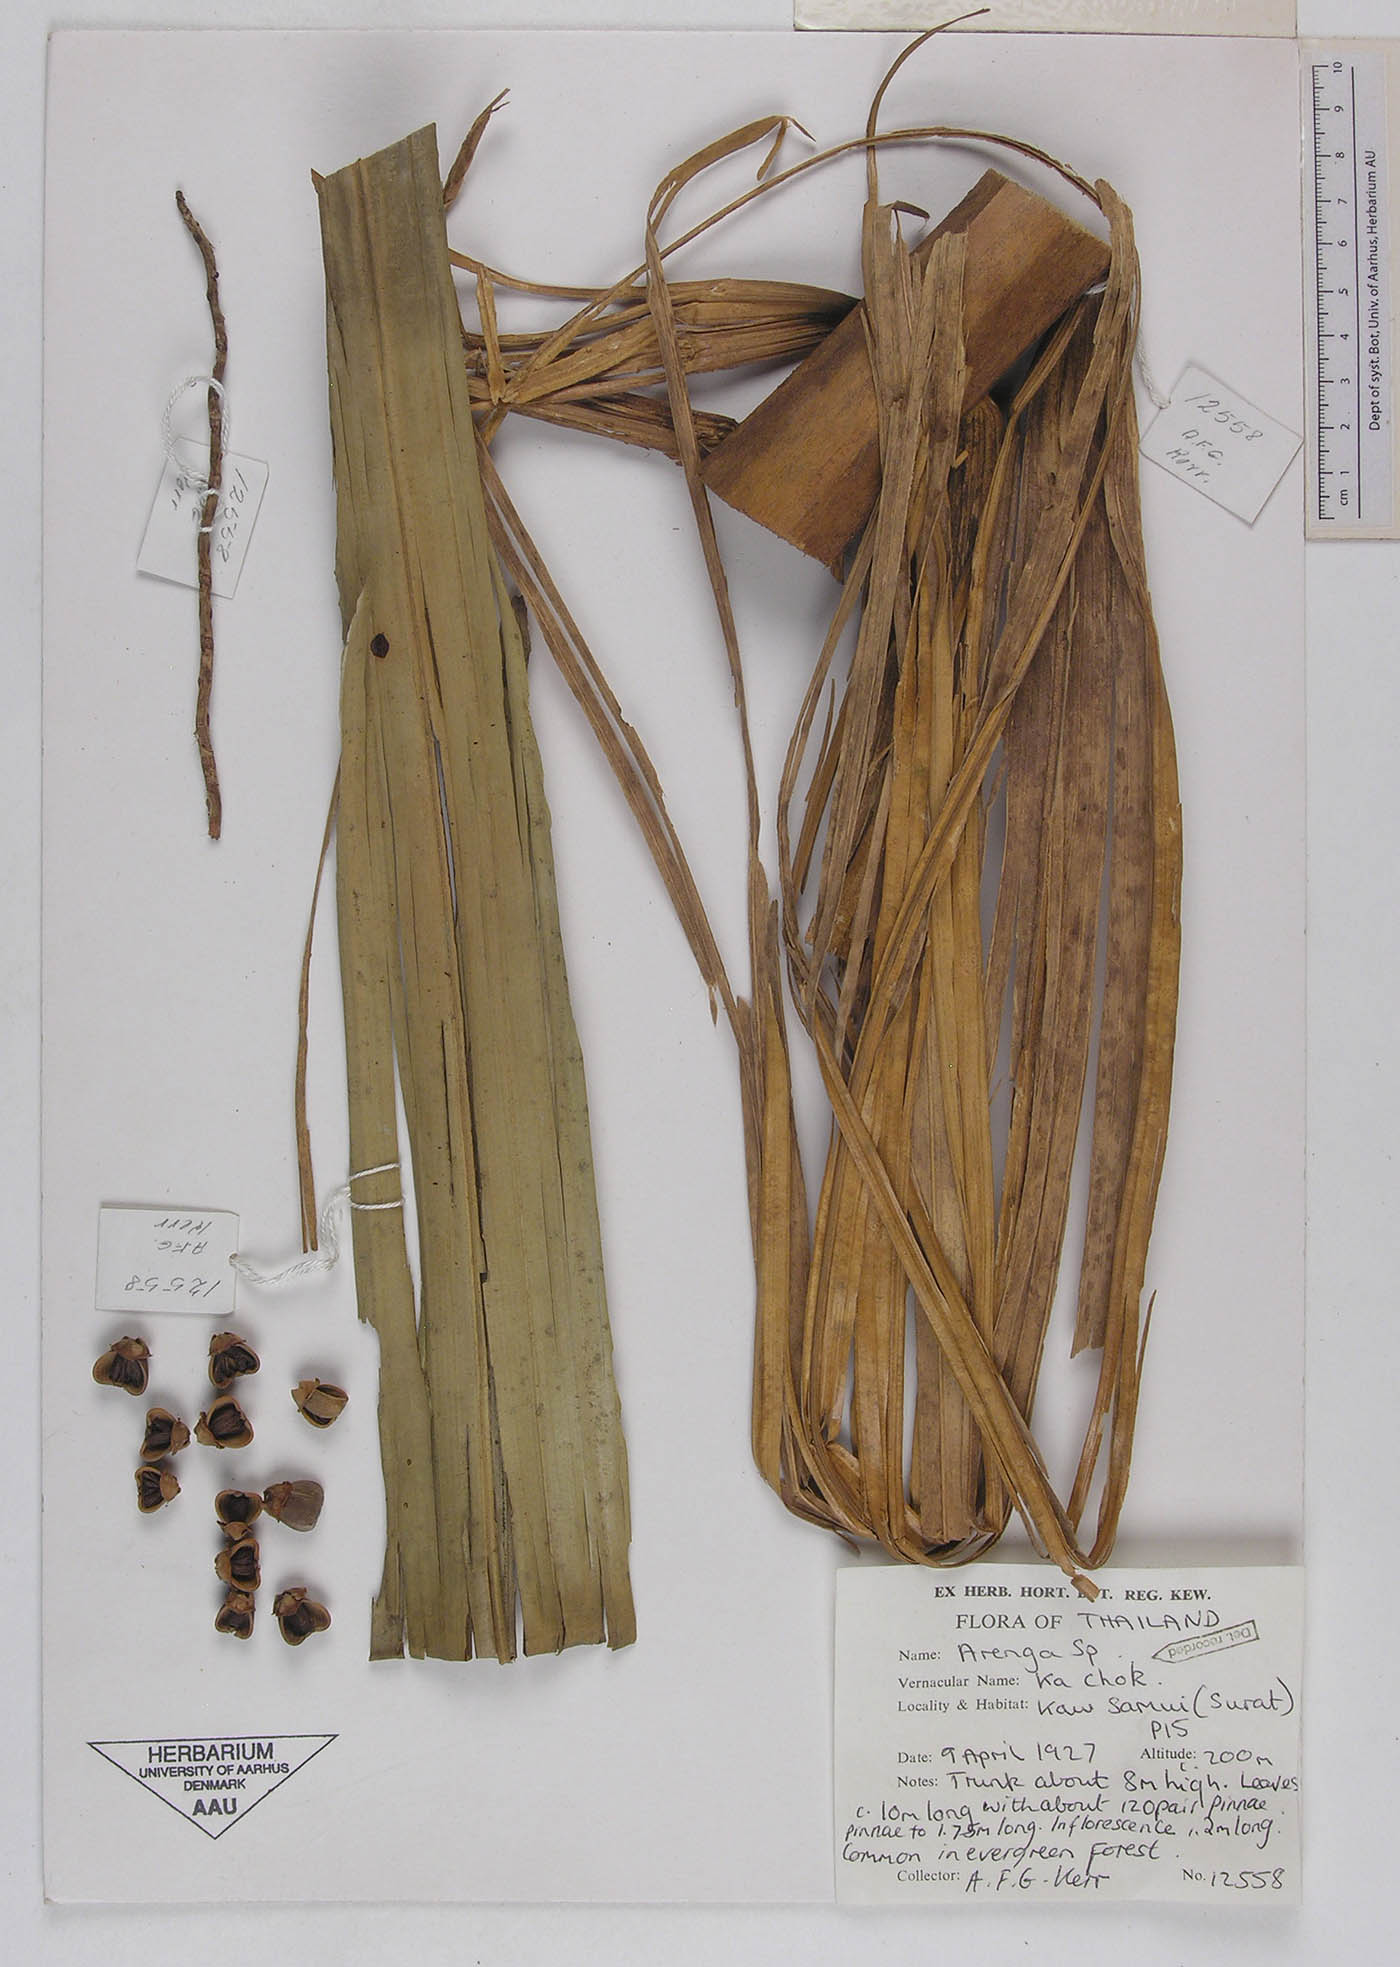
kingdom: Plantae
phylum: Tracheophyta
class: Liliopsida
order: Arecales
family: Arecaceae
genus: Arenga
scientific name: Arenga
